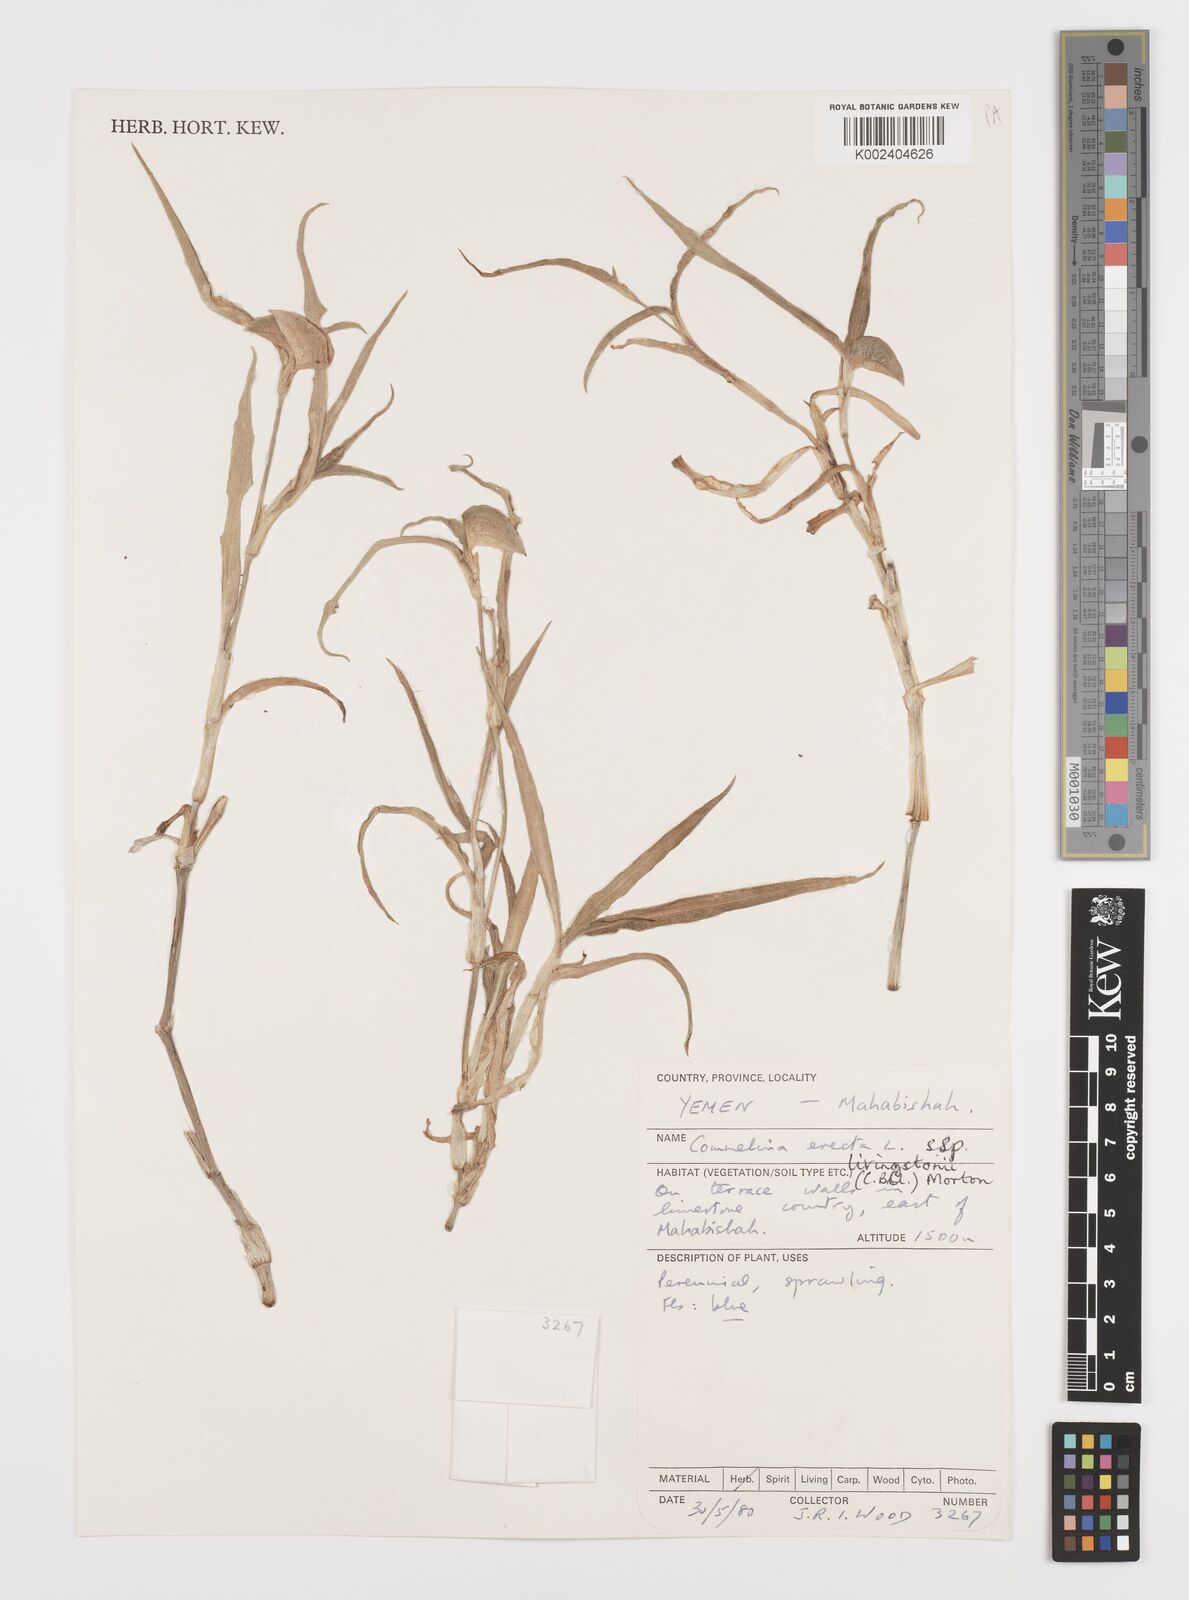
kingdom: Plantae
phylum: Tracheophyta
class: Liliopsida
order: Commelinales
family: Commelinaceae
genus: Commelina
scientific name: Commelina erecta
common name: Blousel blommetjie
